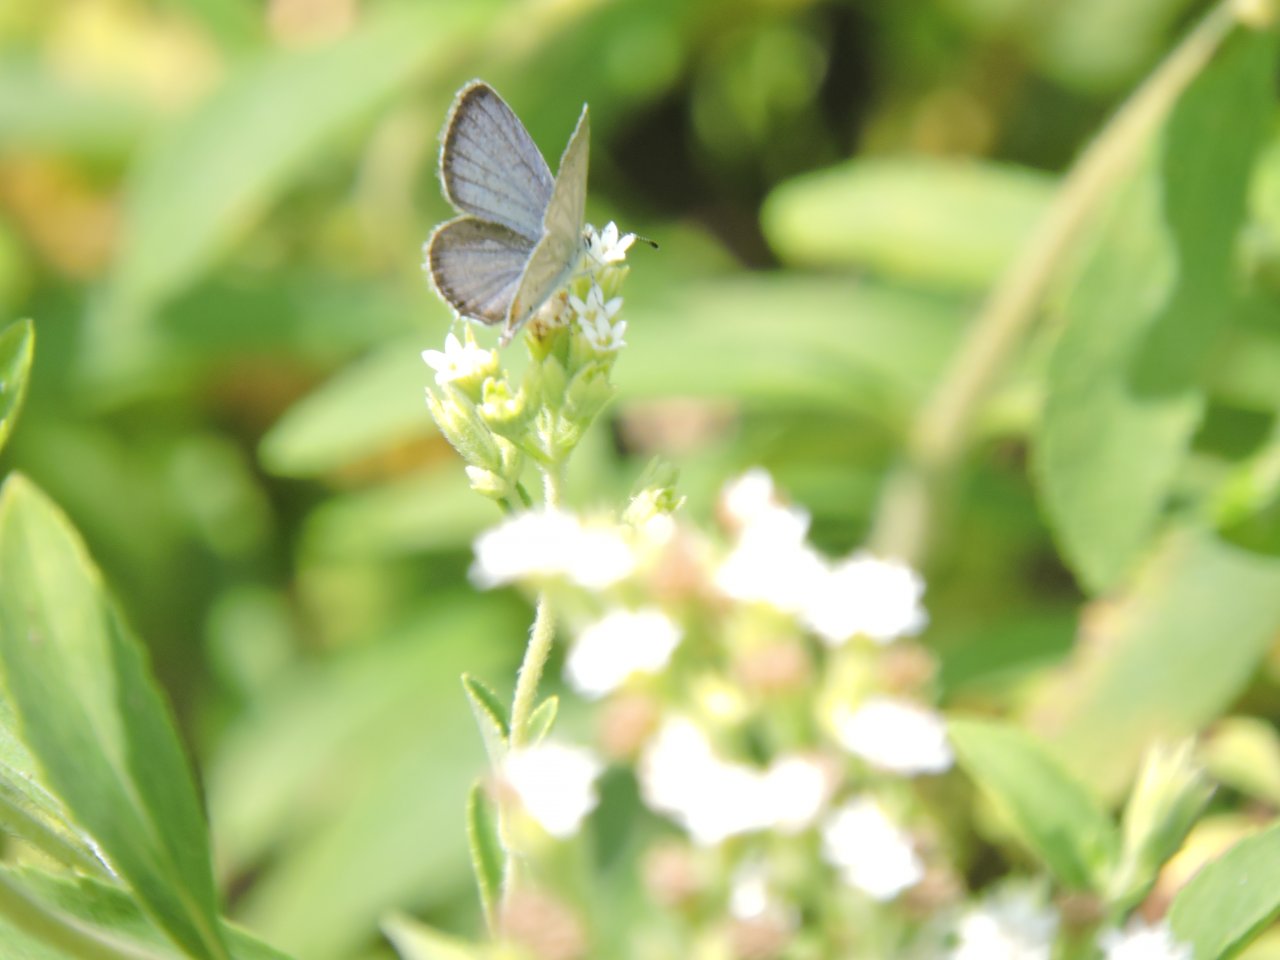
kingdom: Animalia
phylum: Arthropoda
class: Insecta
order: Lepidoptera
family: Lycaenidae
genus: Elkalyce
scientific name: Elkalyce comyntas
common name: Eastern Tailed-Blue
